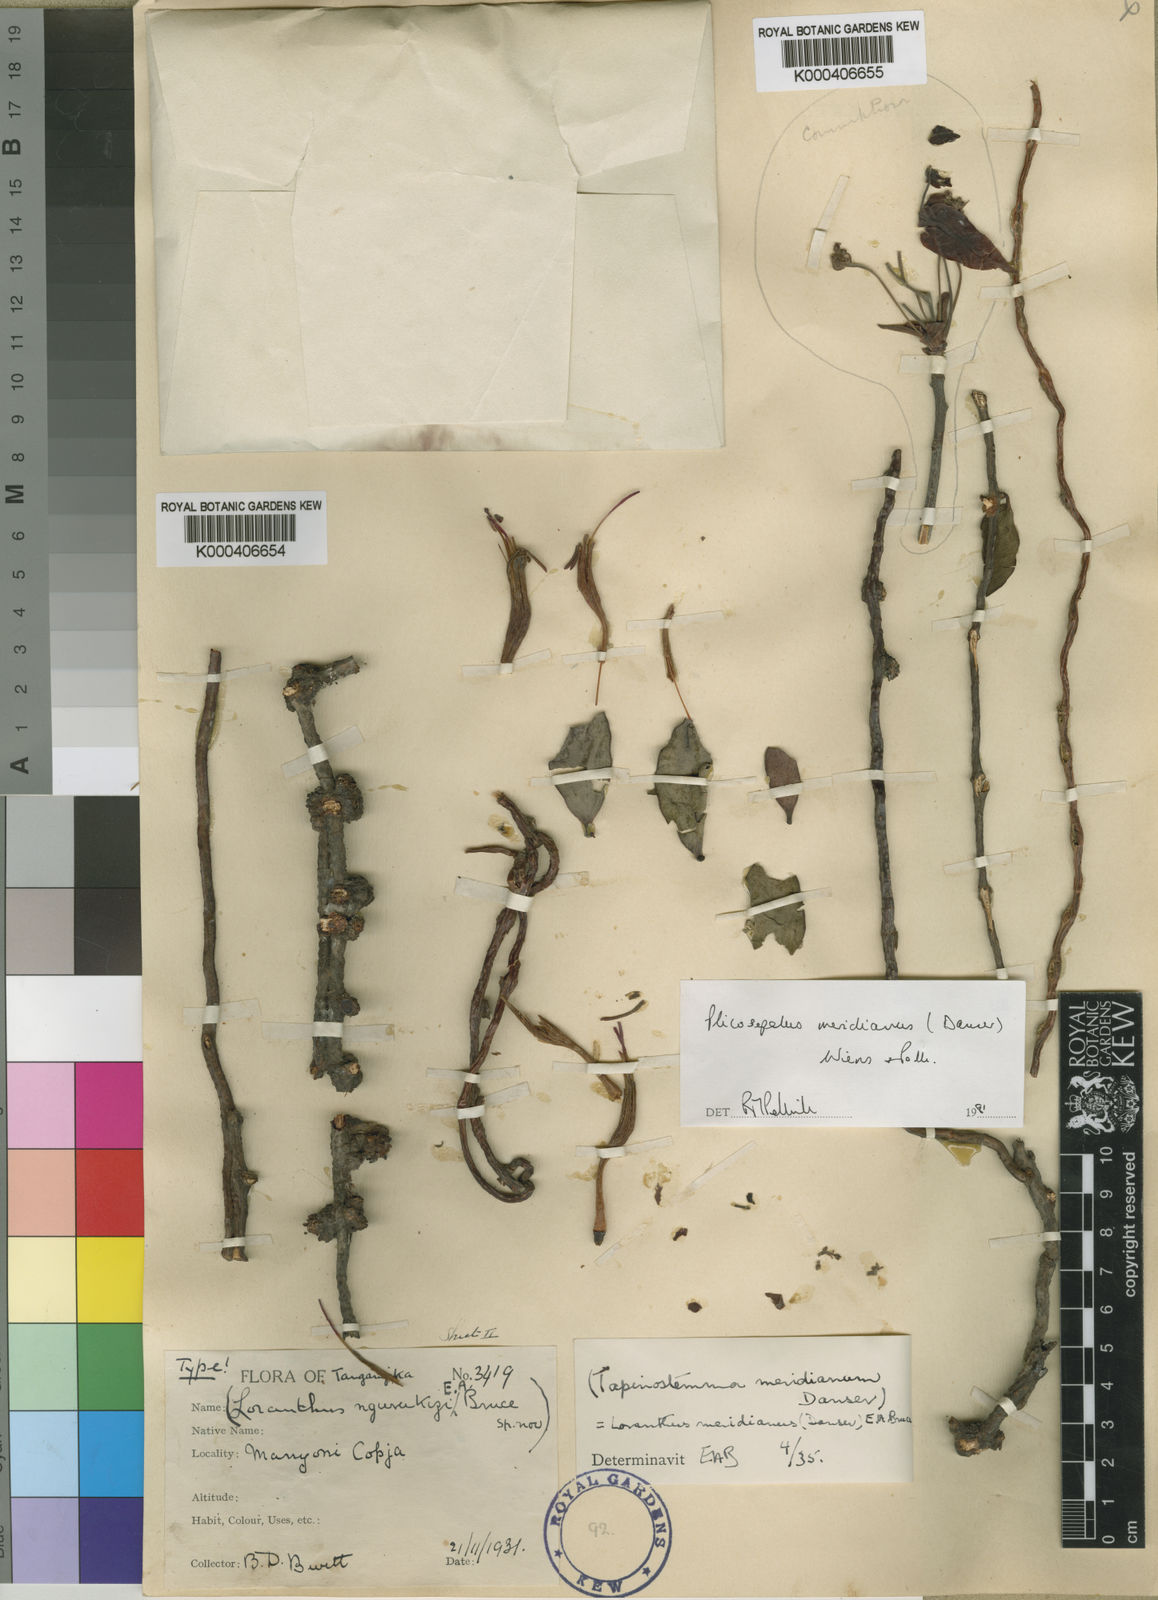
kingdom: Plantae
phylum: Tracheophyta
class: Magnoliopsida
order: Sapindales
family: Burseraceae
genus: Commiphora
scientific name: Commiphora
